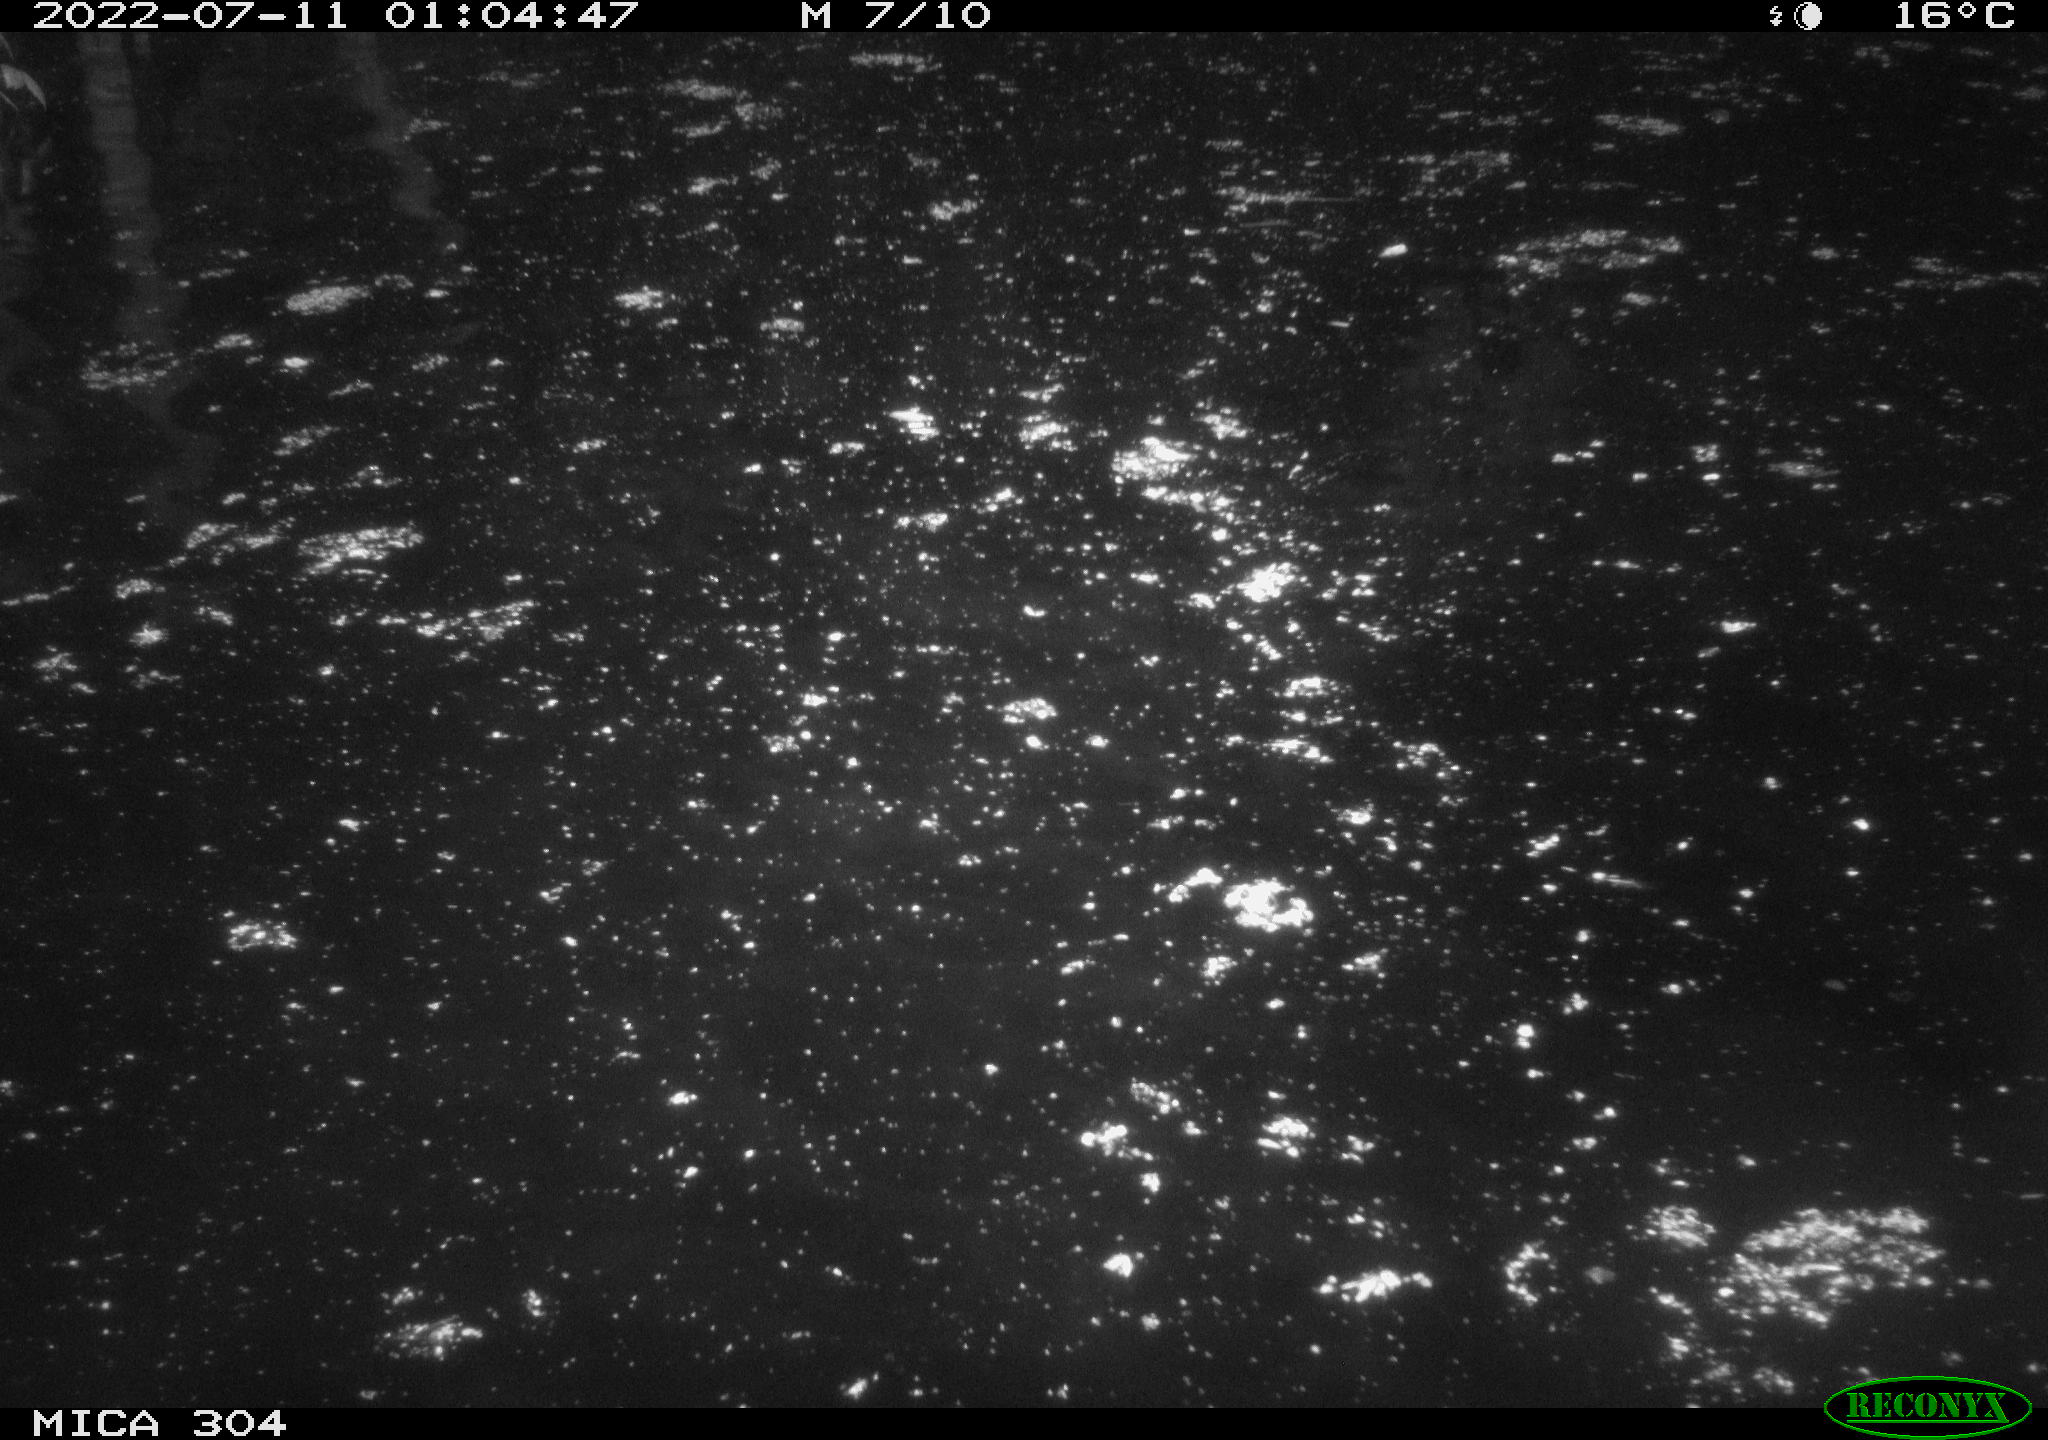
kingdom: Animalia
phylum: Chordata
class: Mammalia
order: Rodentia
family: Cricetidae
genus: Ondatra
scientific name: Ondatra zibethicus
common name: Muskrat
